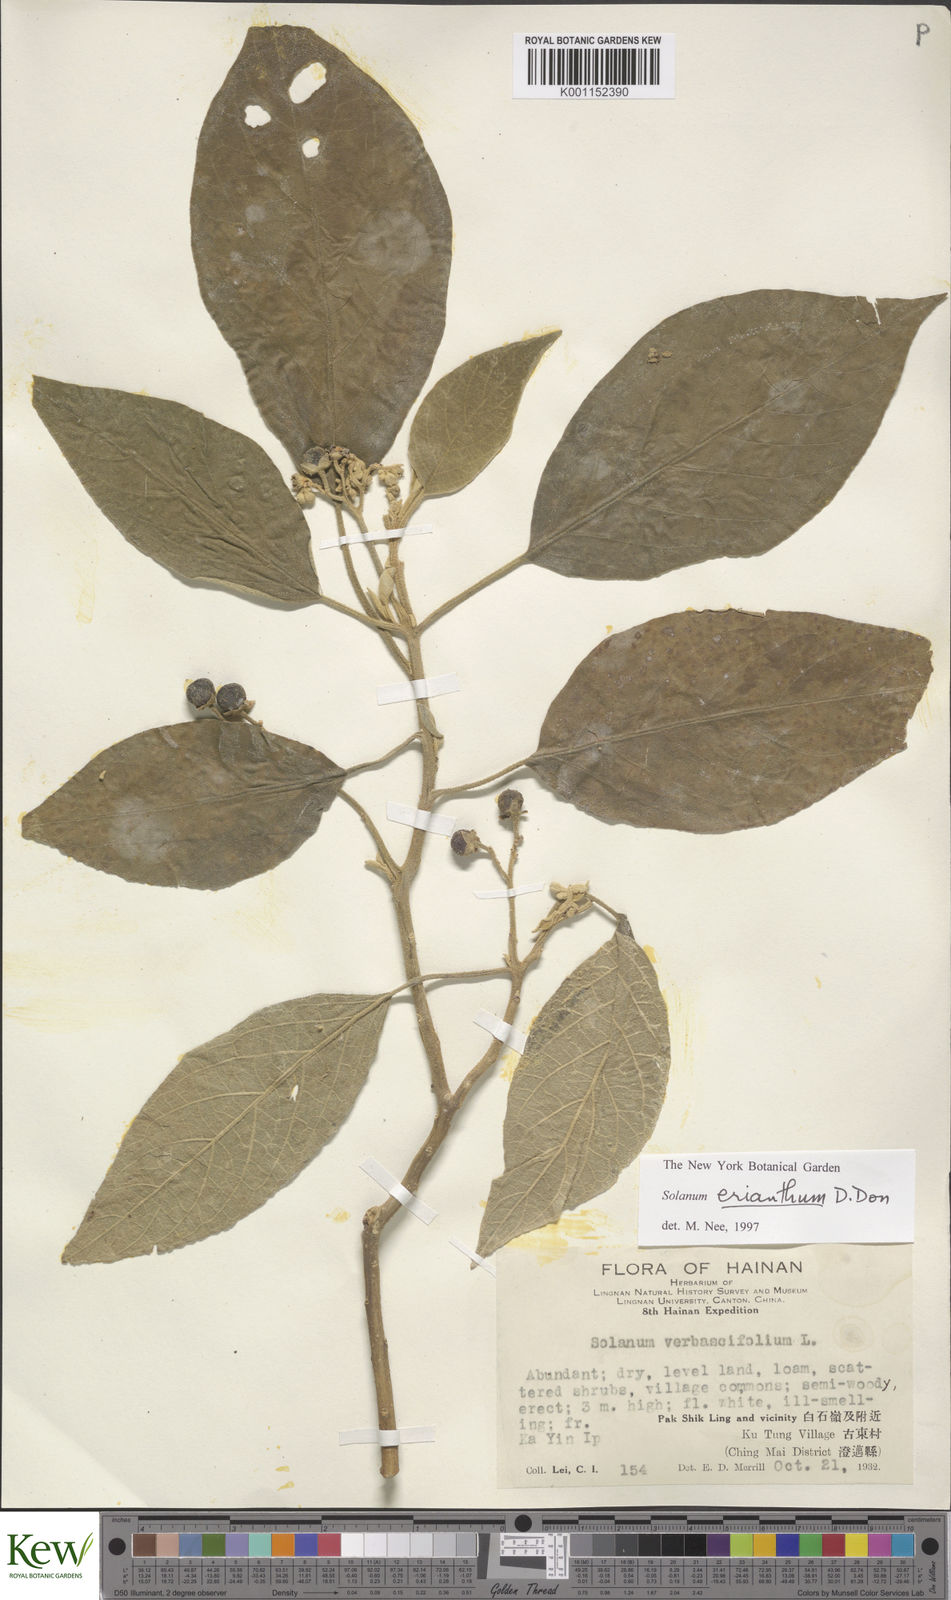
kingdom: Plantae
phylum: Tracheophyta
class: Magnoliopsida
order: Solanales
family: Solanaceae
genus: Solanum
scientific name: Solanum donianum
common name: Mullein nightshade
